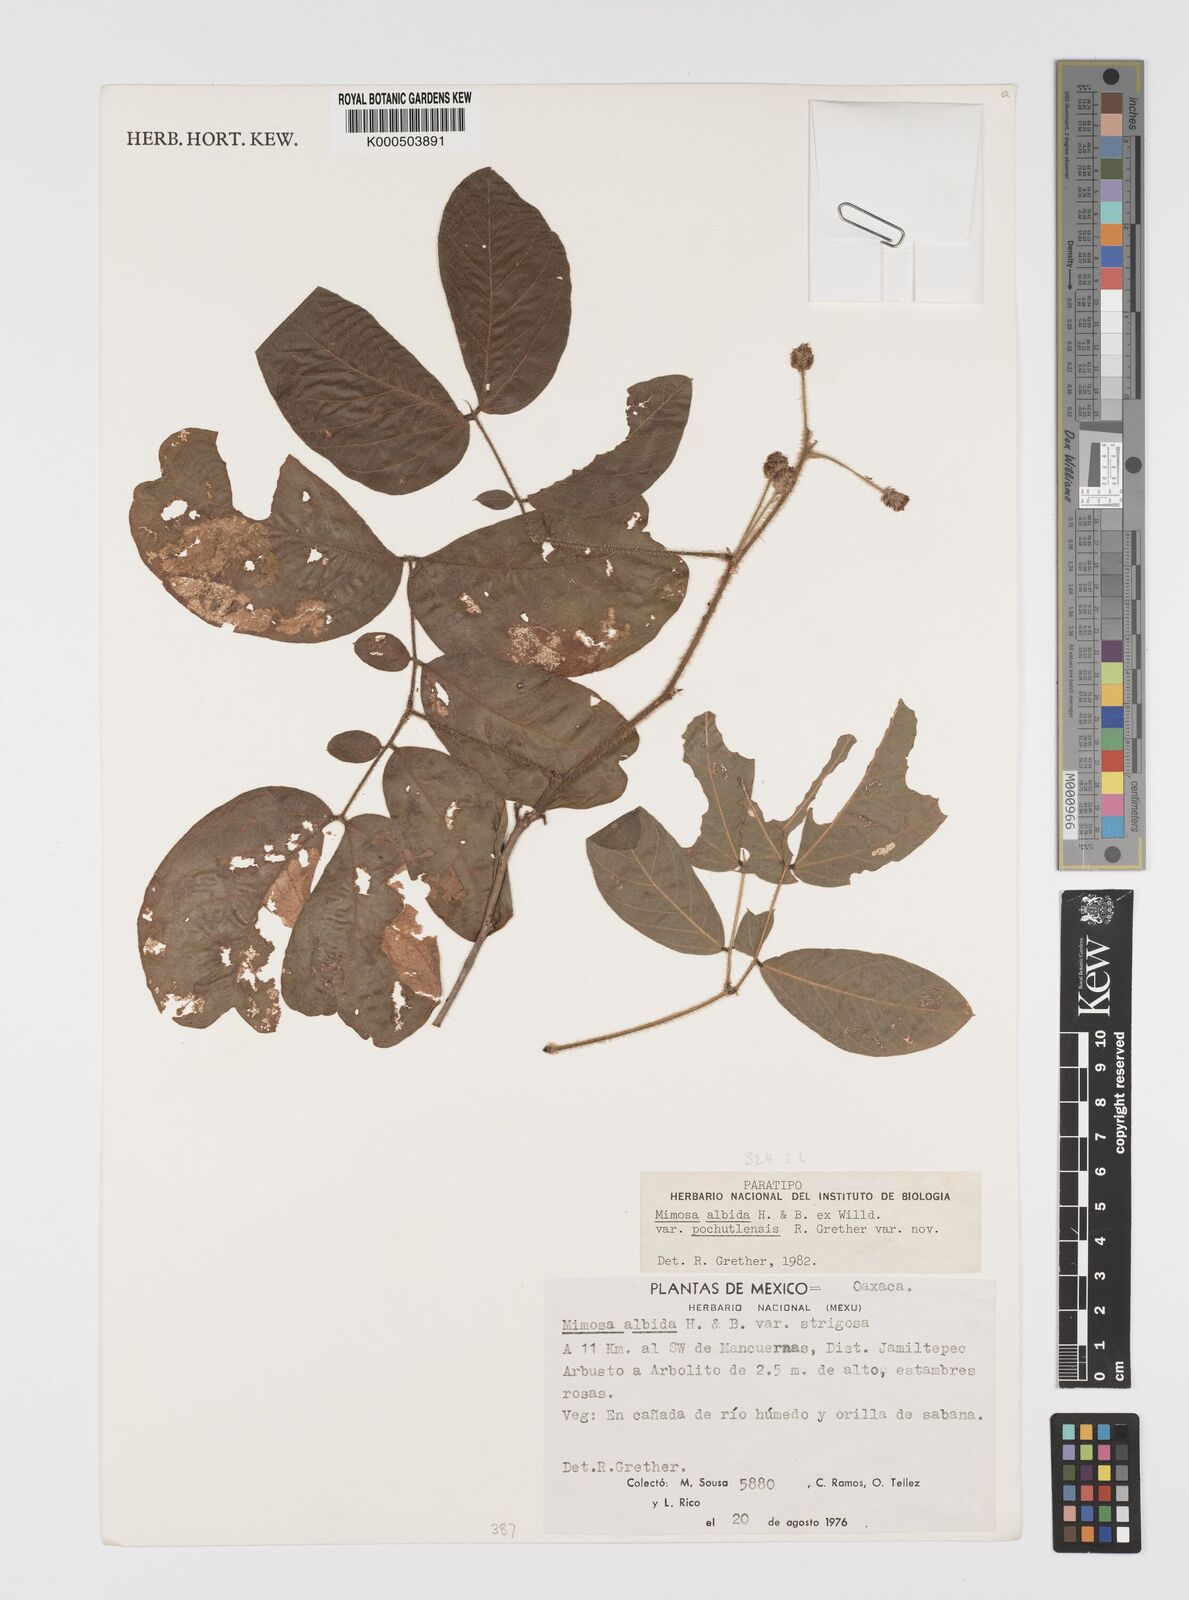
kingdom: Plantae
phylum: Tracheophyta
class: Magnoliopsida
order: Fabales
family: Fabaceae
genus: Mimosa
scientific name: Mimosa albida
